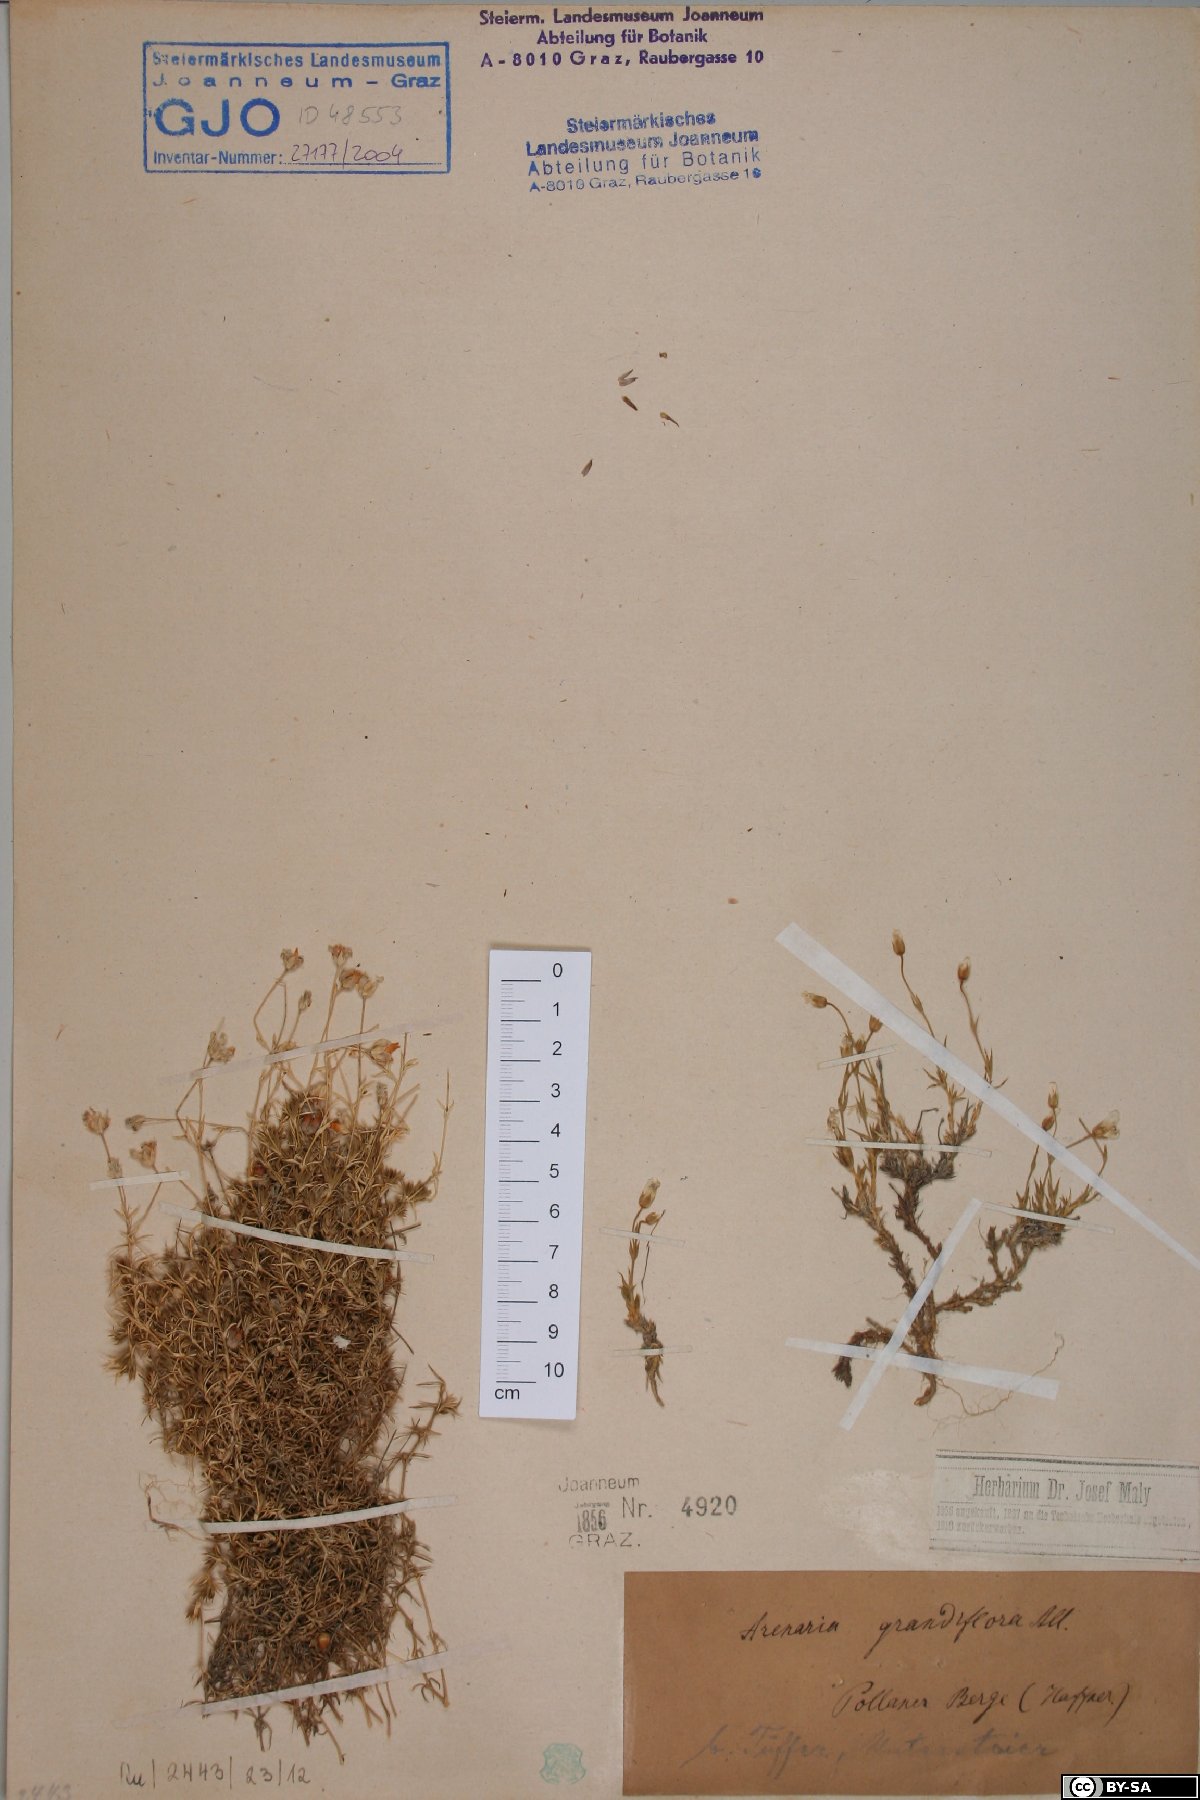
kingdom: Plantae
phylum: Tracheophyta
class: Magnoliopsida
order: Caryophyllales
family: Caryophyllaceae
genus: Arenaria
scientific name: Arenaria grandiflora
